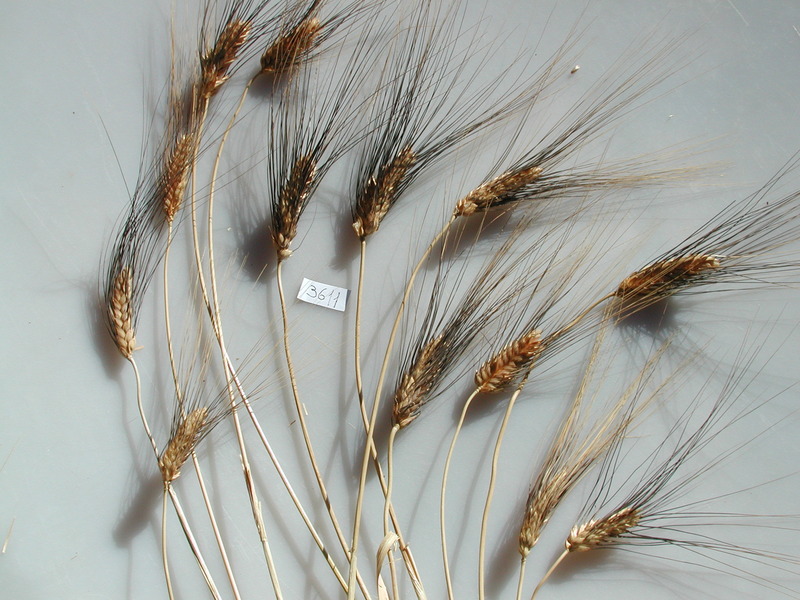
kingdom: Plantae
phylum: Tracheophyta
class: Liliopsida
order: Poales
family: Poaceae
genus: Triticum
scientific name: Triticum turgidum
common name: Wheat
